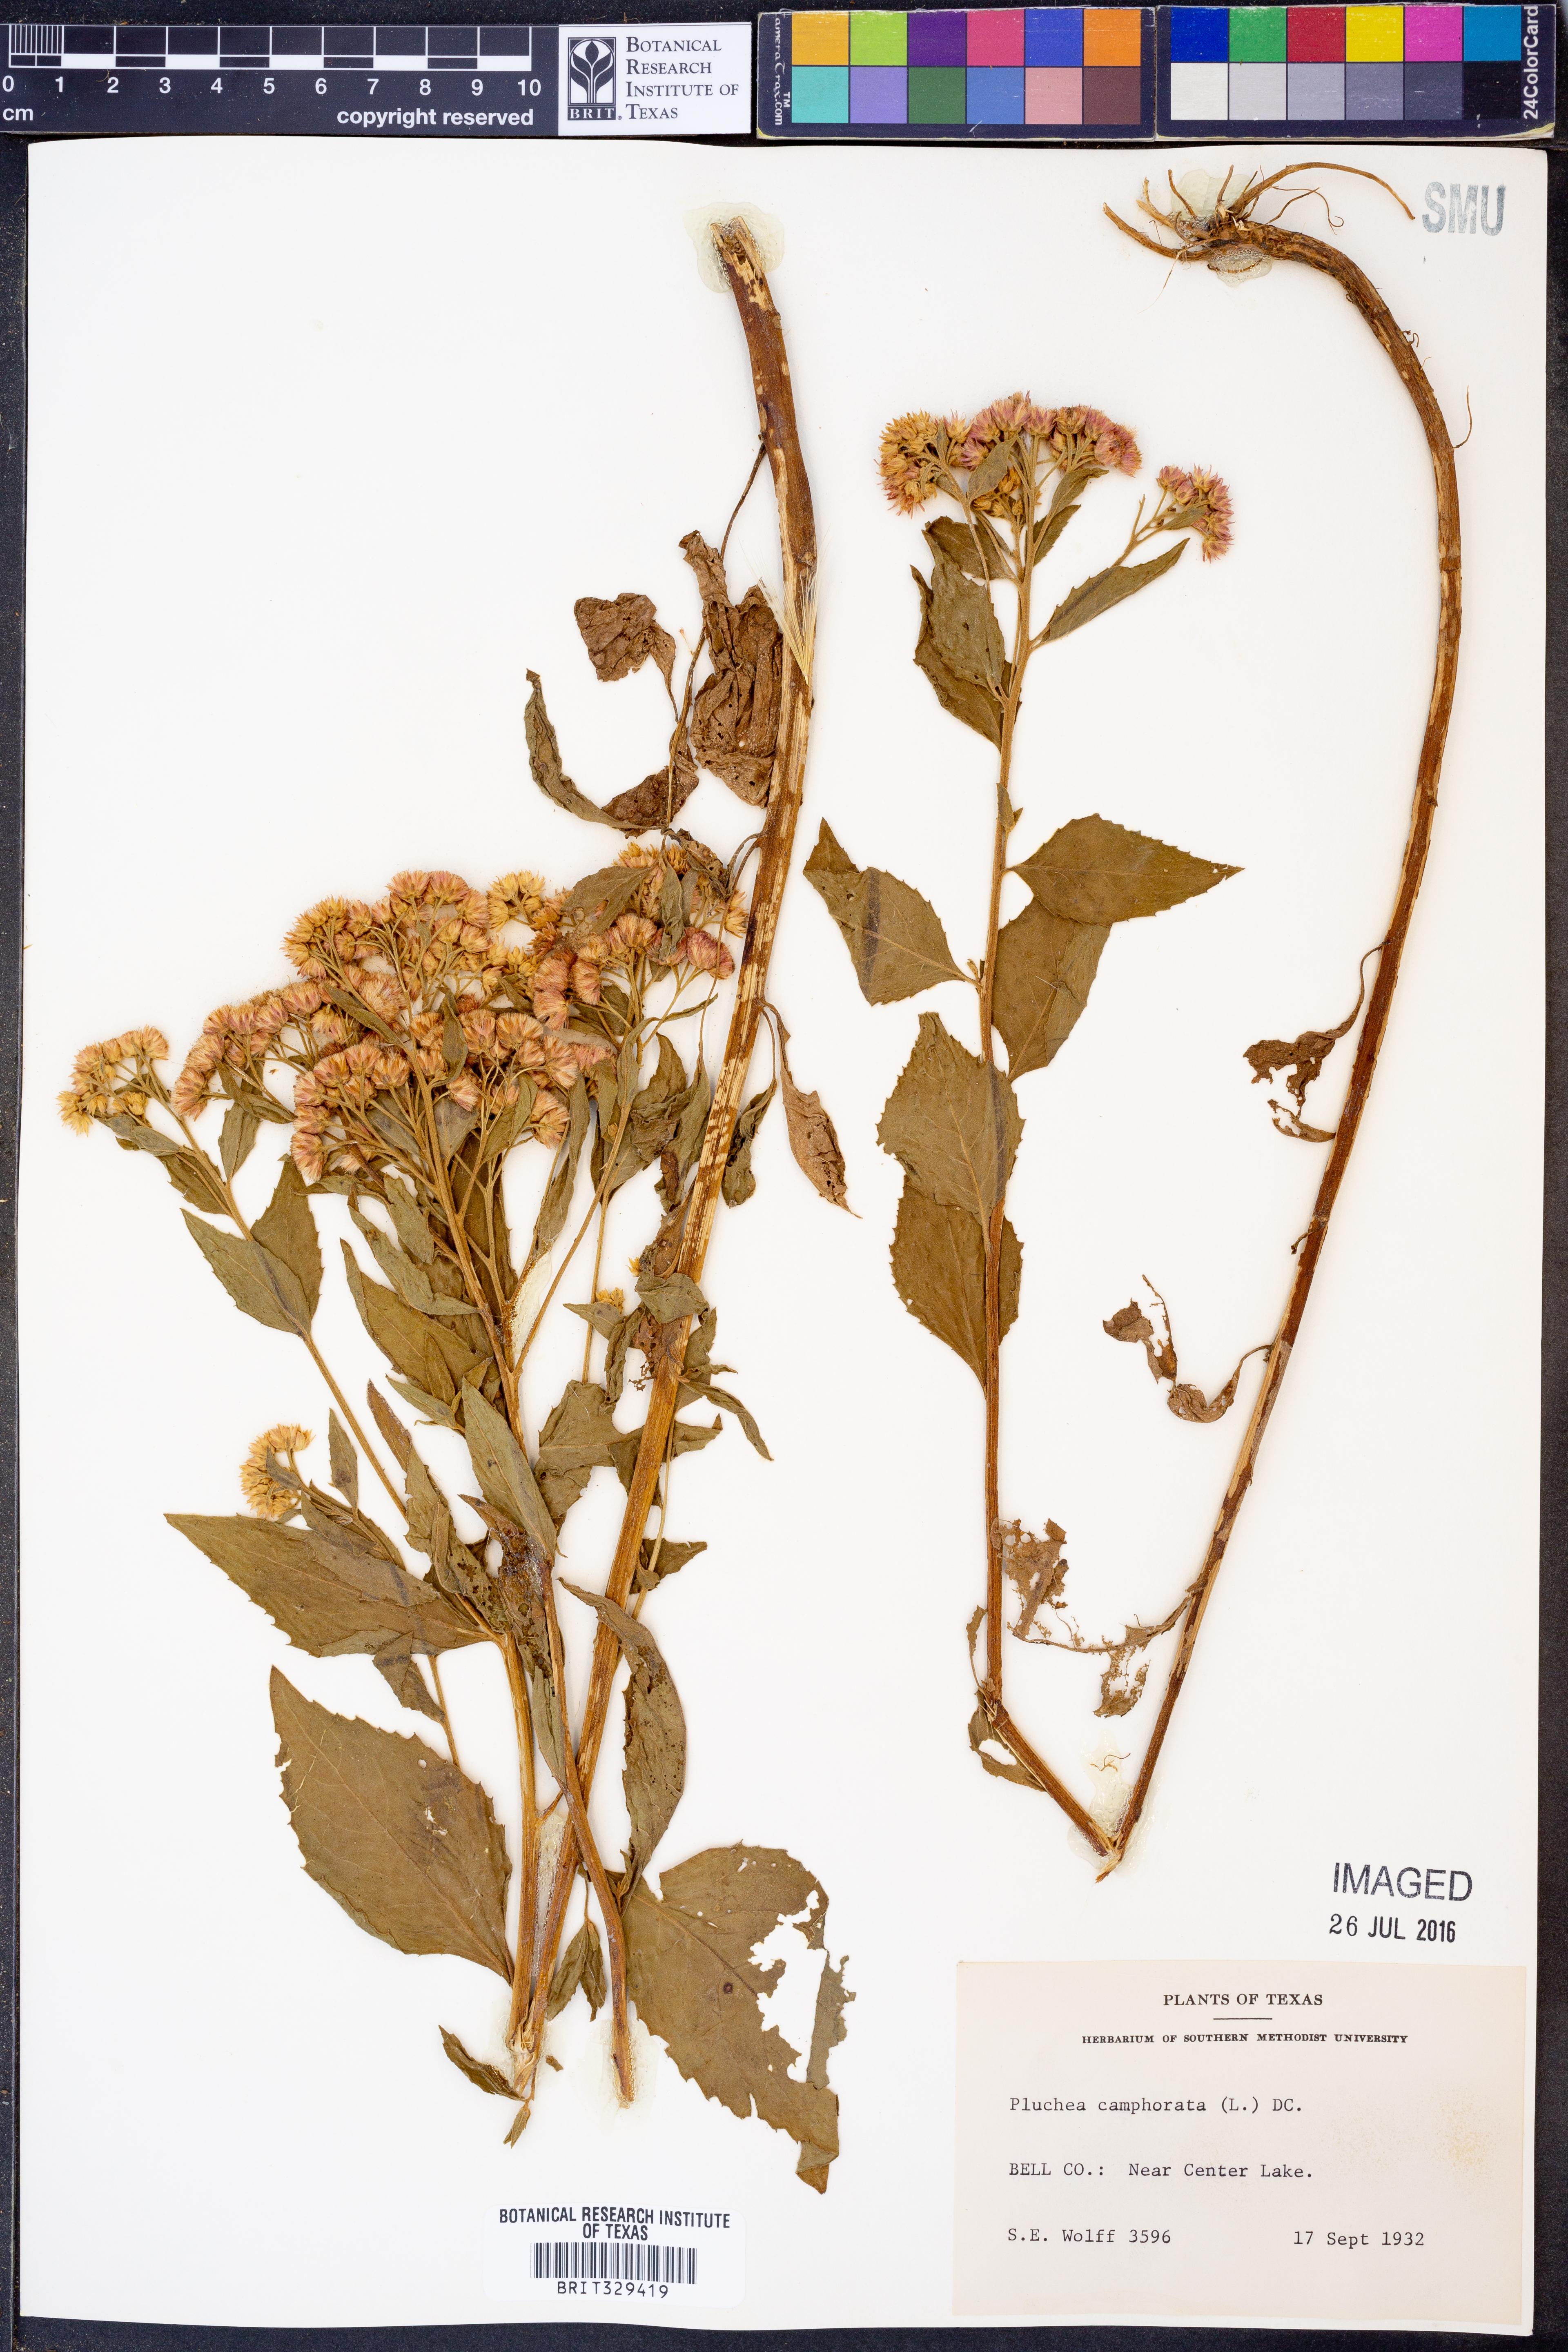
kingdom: Plantae
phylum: Tracheophyta
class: Magnoliopsida
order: Asterales
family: Asteraceae
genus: Pluchea
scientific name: Pluchea camphorata
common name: Camphor pluchea
